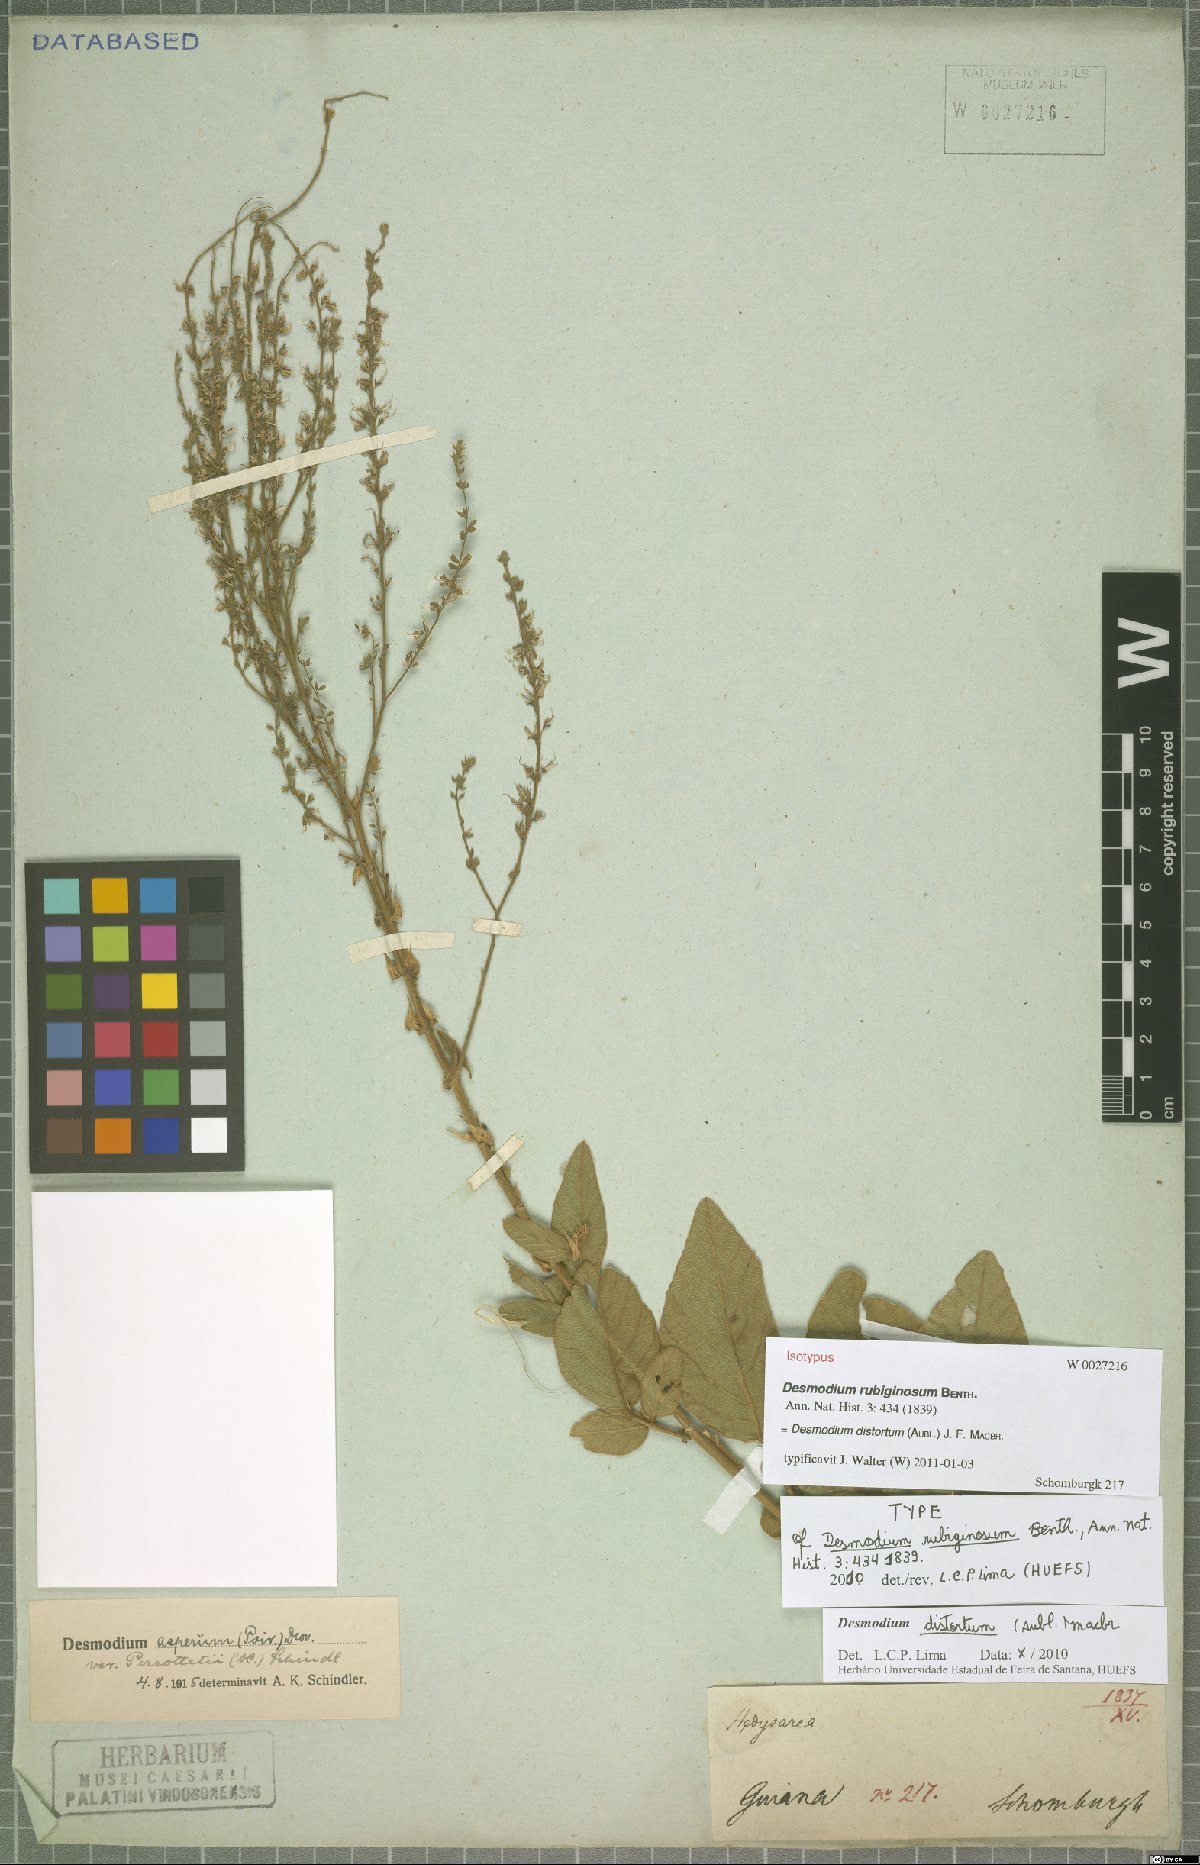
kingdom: Plantae
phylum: Tracheophyta
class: Magnoliopsida
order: Fabales
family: Fabaceae
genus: Desmodium
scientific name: Desmodium distortum
